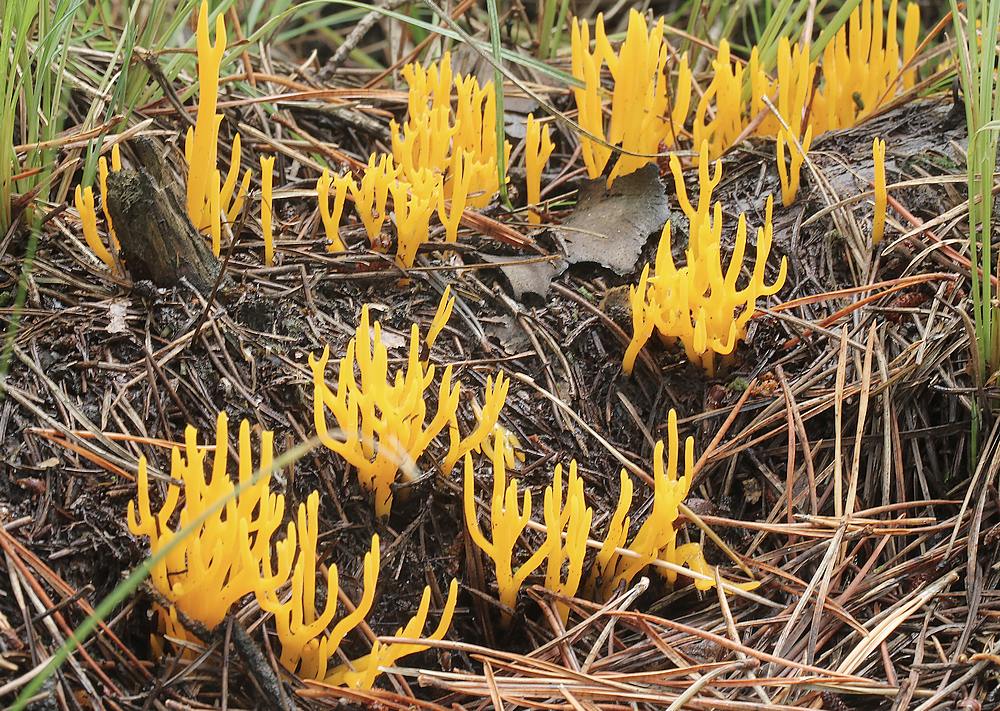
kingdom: Fungi
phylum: Basidiomycota
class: Dacrymycetes
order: Dacrymycetales
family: Dacrymycetaceae
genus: Calocera
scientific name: Calocera viscosa
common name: almindelig guldgaffel
